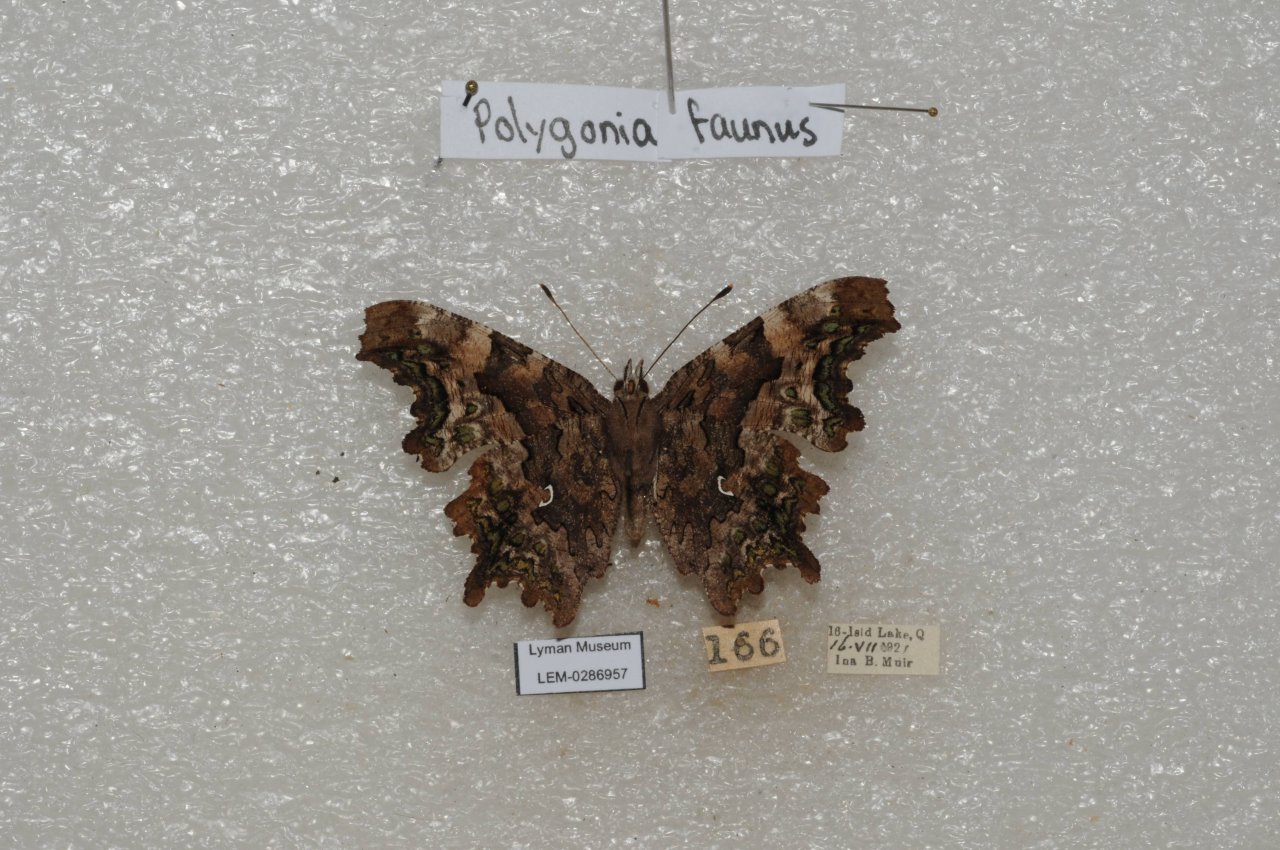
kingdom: Animalia
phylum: Arthropoda
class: Insecta
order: Lepidoptera
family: Nymphalidae
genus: Polygonia
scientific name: Polygonia faunus
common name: Green Comma
